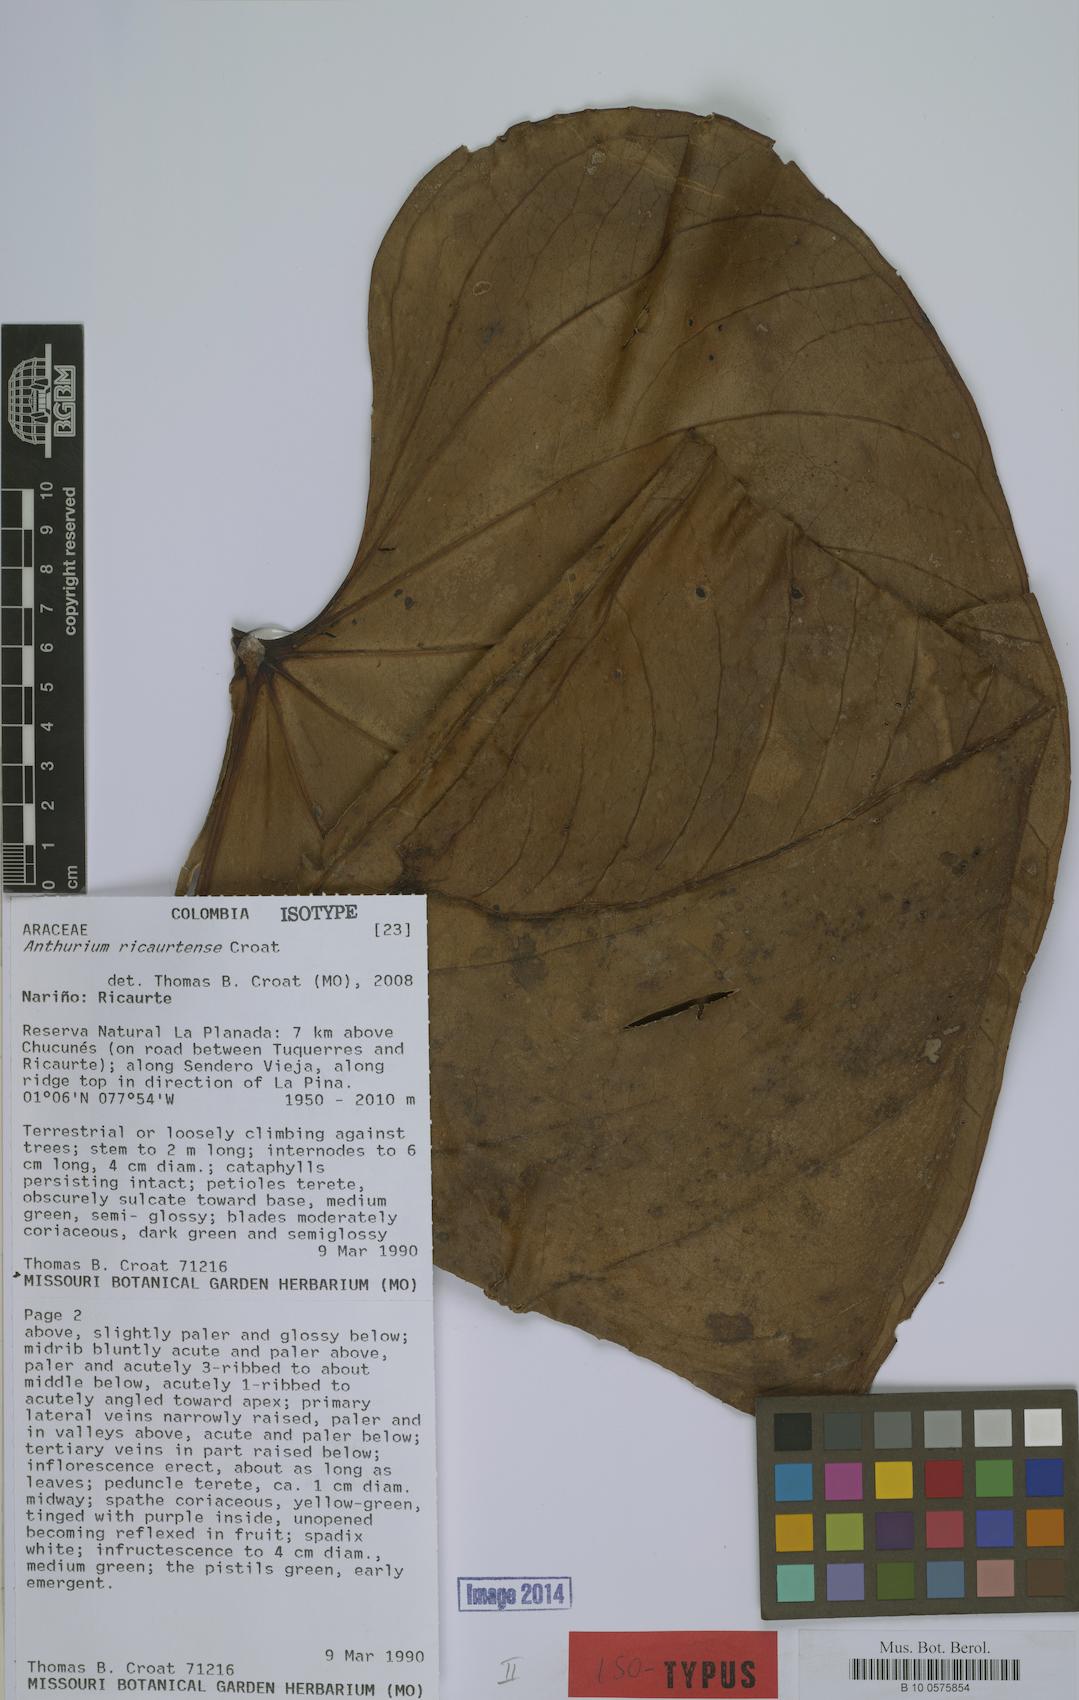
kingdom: Plantae
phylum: Tracheophyta
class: Liliopsida
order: Alismatales
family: Araceae
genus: Anthurium
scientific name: Anthurium ricaurtense
